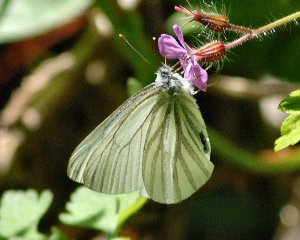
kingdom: Animalia
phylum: Arthropoda
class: Insecta
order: Lepidoptera
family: Pieridae
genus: Pieris
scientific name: Pieris marginalis
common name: Margined White
